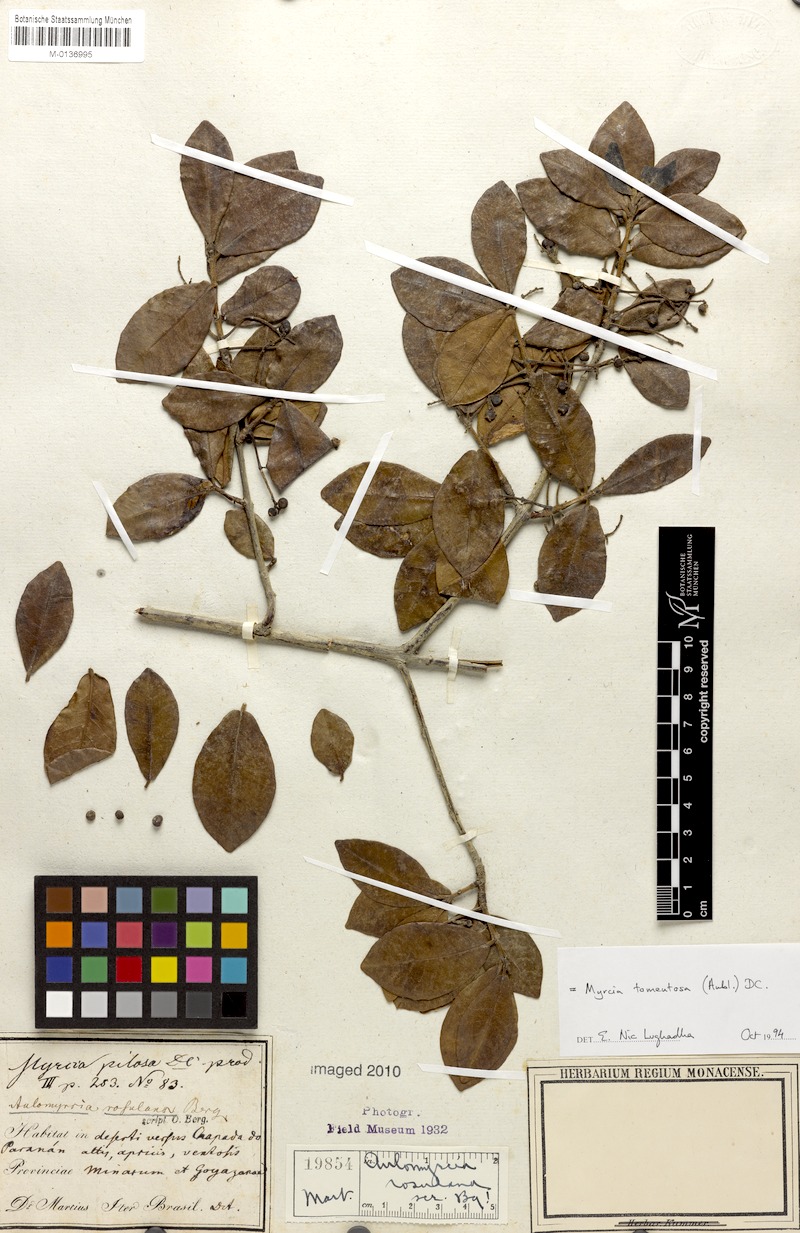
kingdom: Plantae
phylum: Tracheophyta
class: Magnoliopsida
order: Myrtales
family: Myrtaceae
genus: Myrcia
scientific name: Myrcia tomentosa
